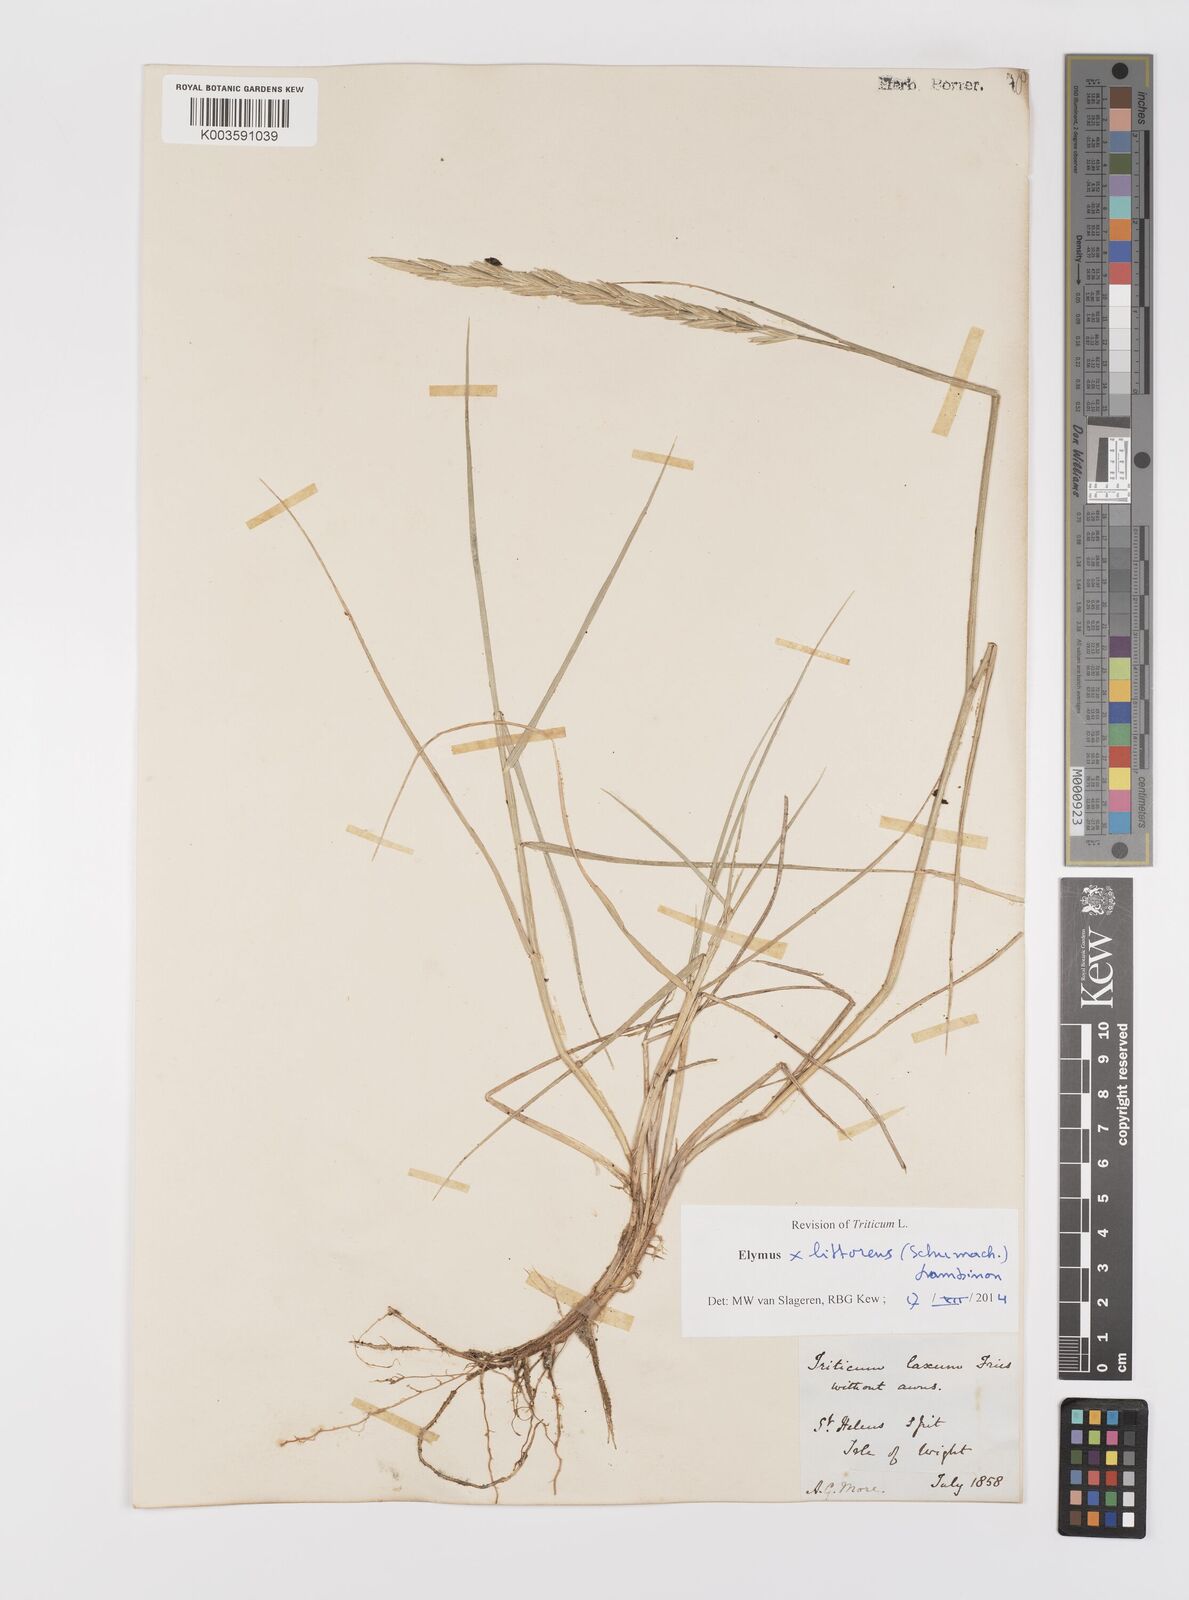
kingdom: Plantae
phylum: Tracheophyta
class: Liliopsida
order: Poales
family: Poaceae
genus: Leymus
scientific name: Leymus
